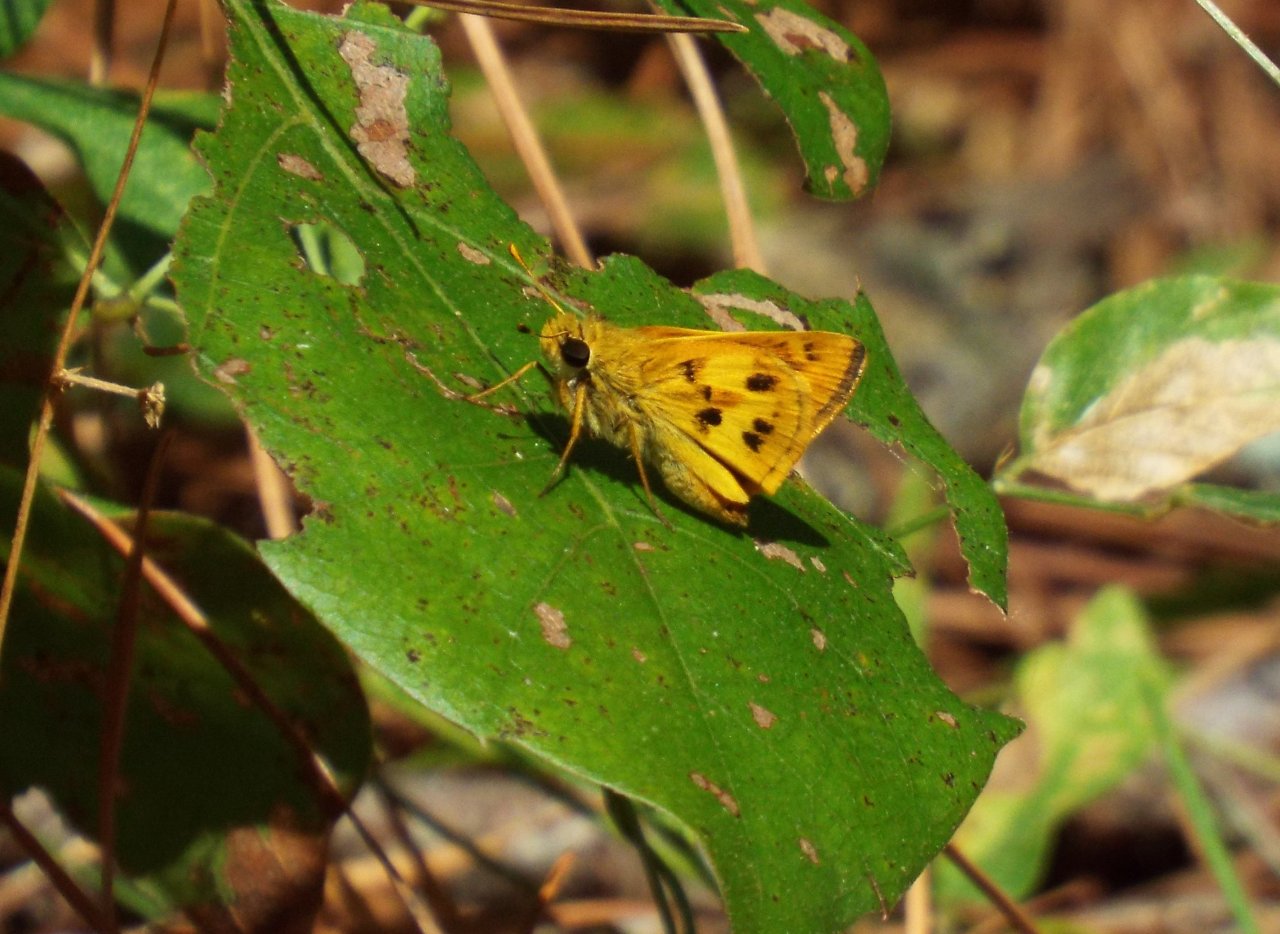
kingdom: Animalia
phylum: Arthropoda
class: Insecta
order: Lepidoptera
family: Hesperiidae
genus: Polites
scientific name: Polites vibex
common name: Whirlabout
